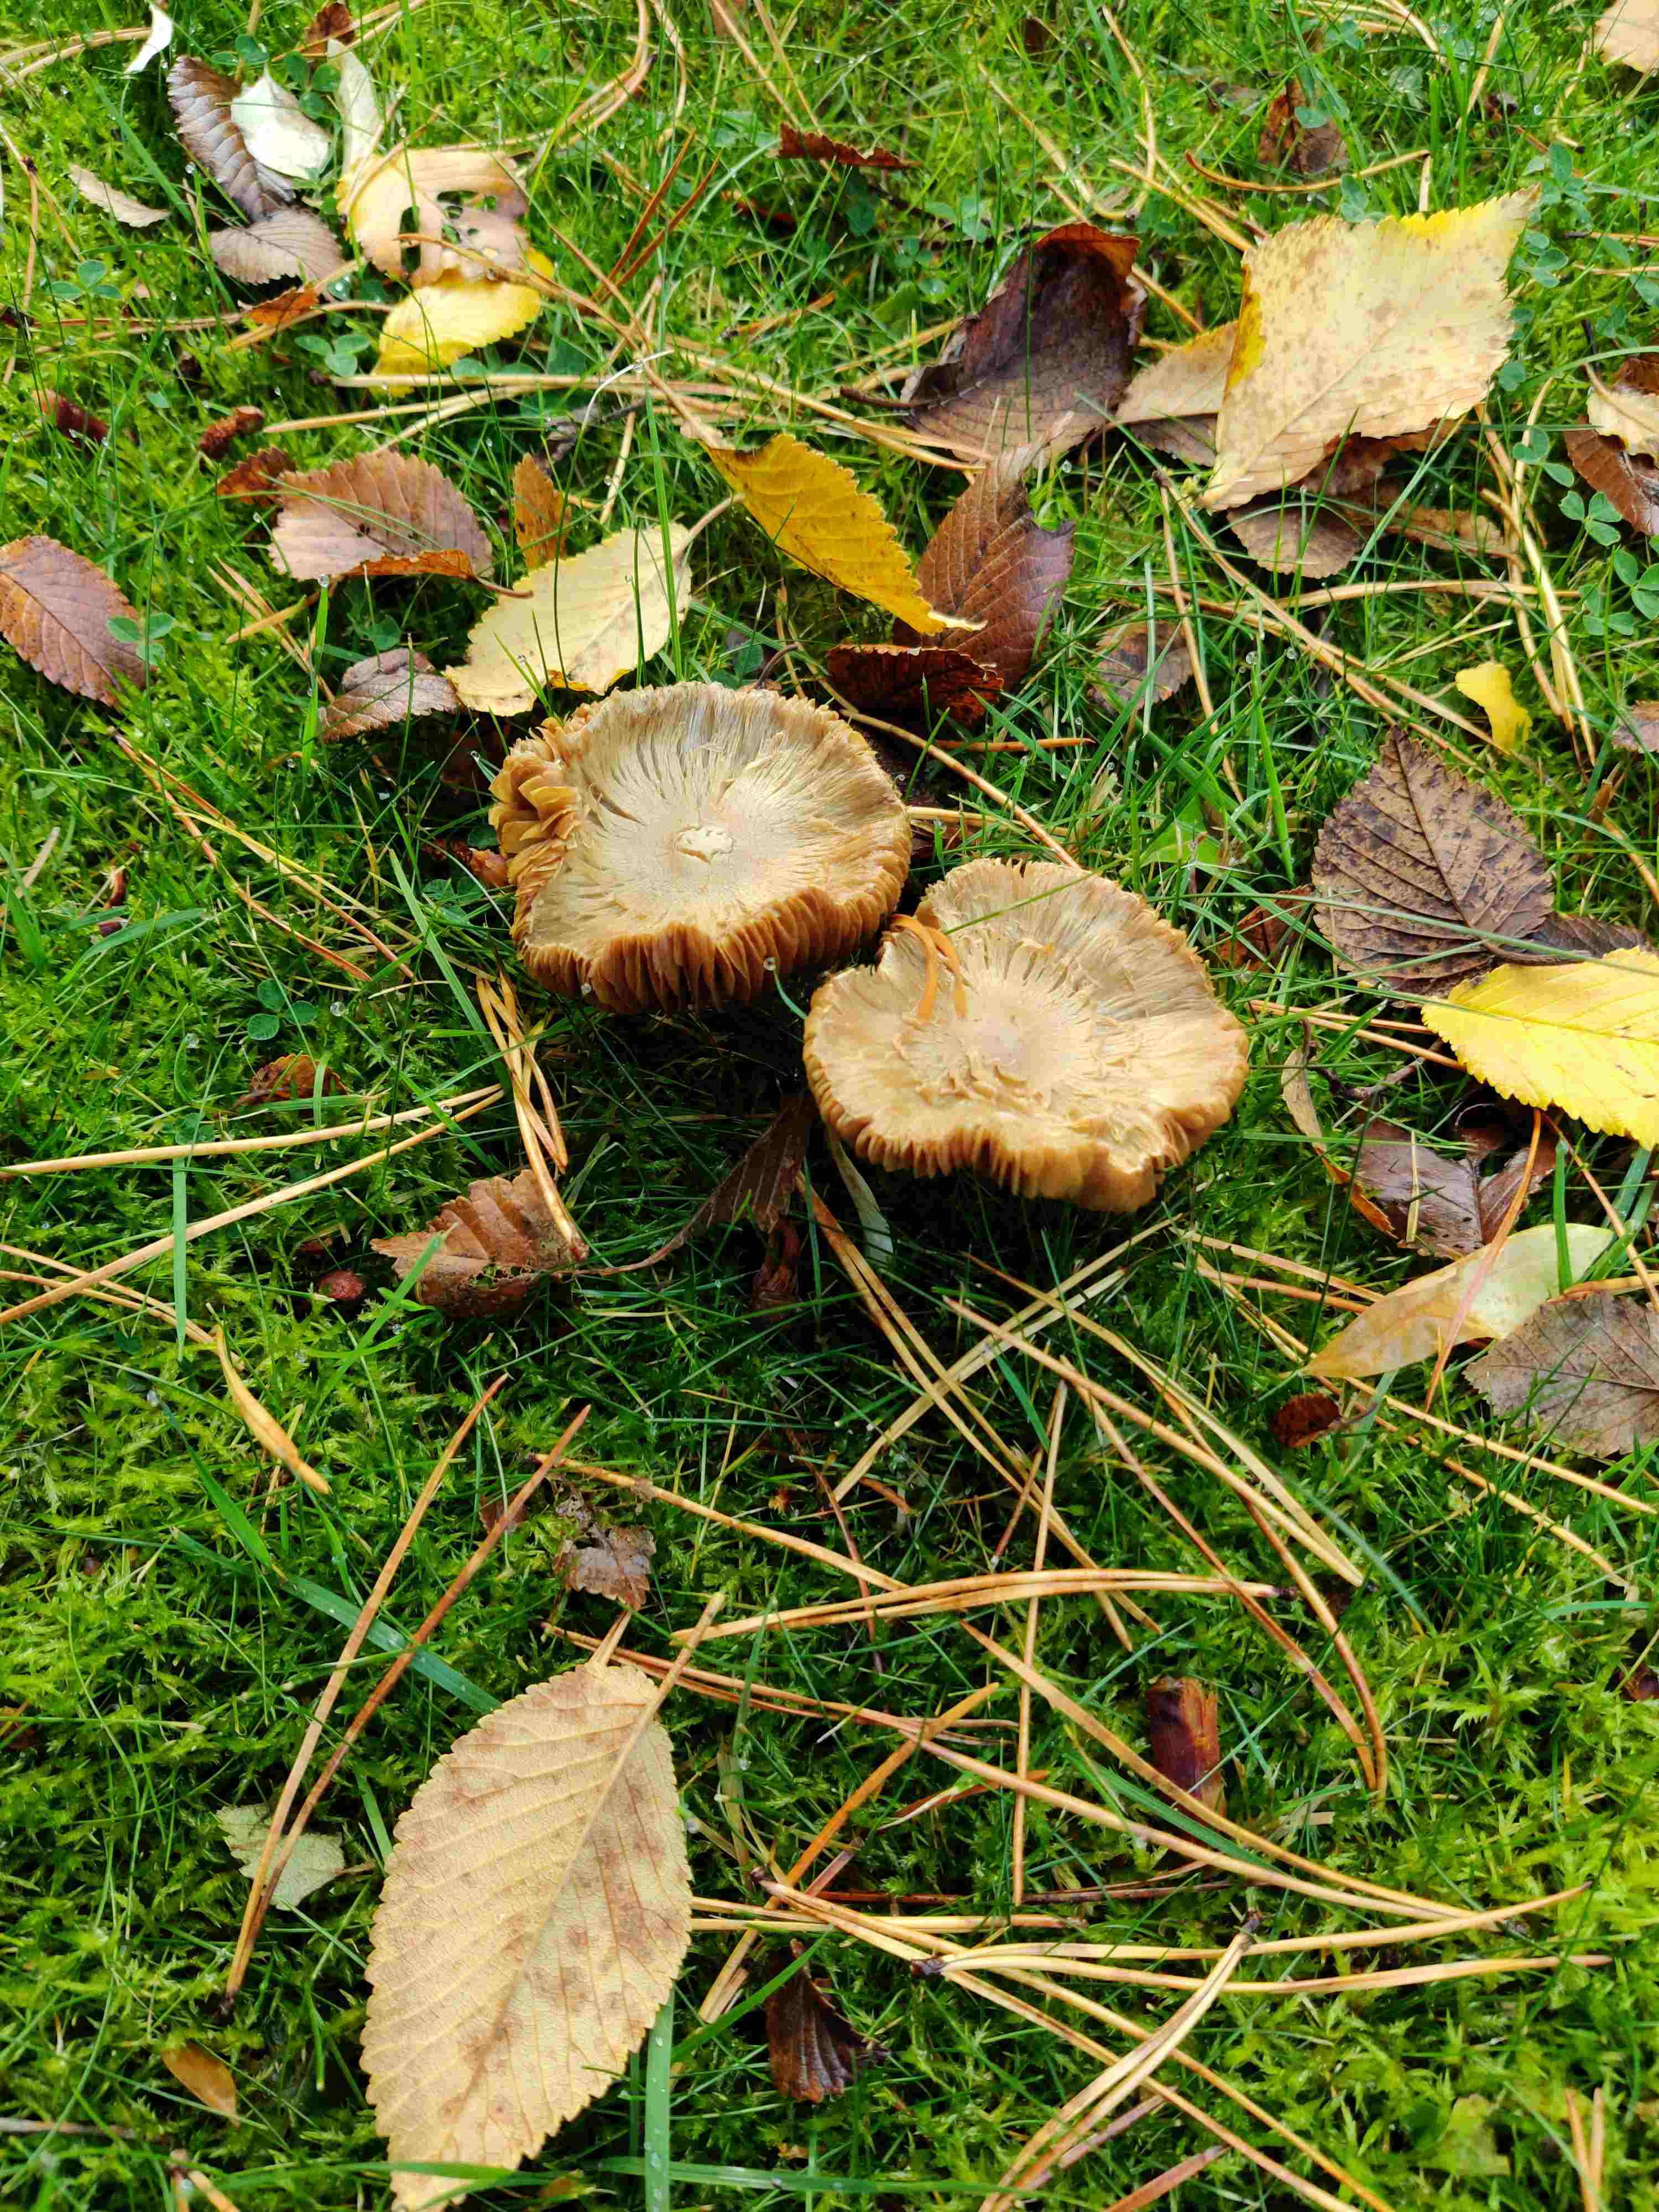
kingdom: Fungi
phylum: Basidiomycota
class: Agaricomycetes
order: Agaricales
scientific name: Agaricales
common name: champignonordenen
